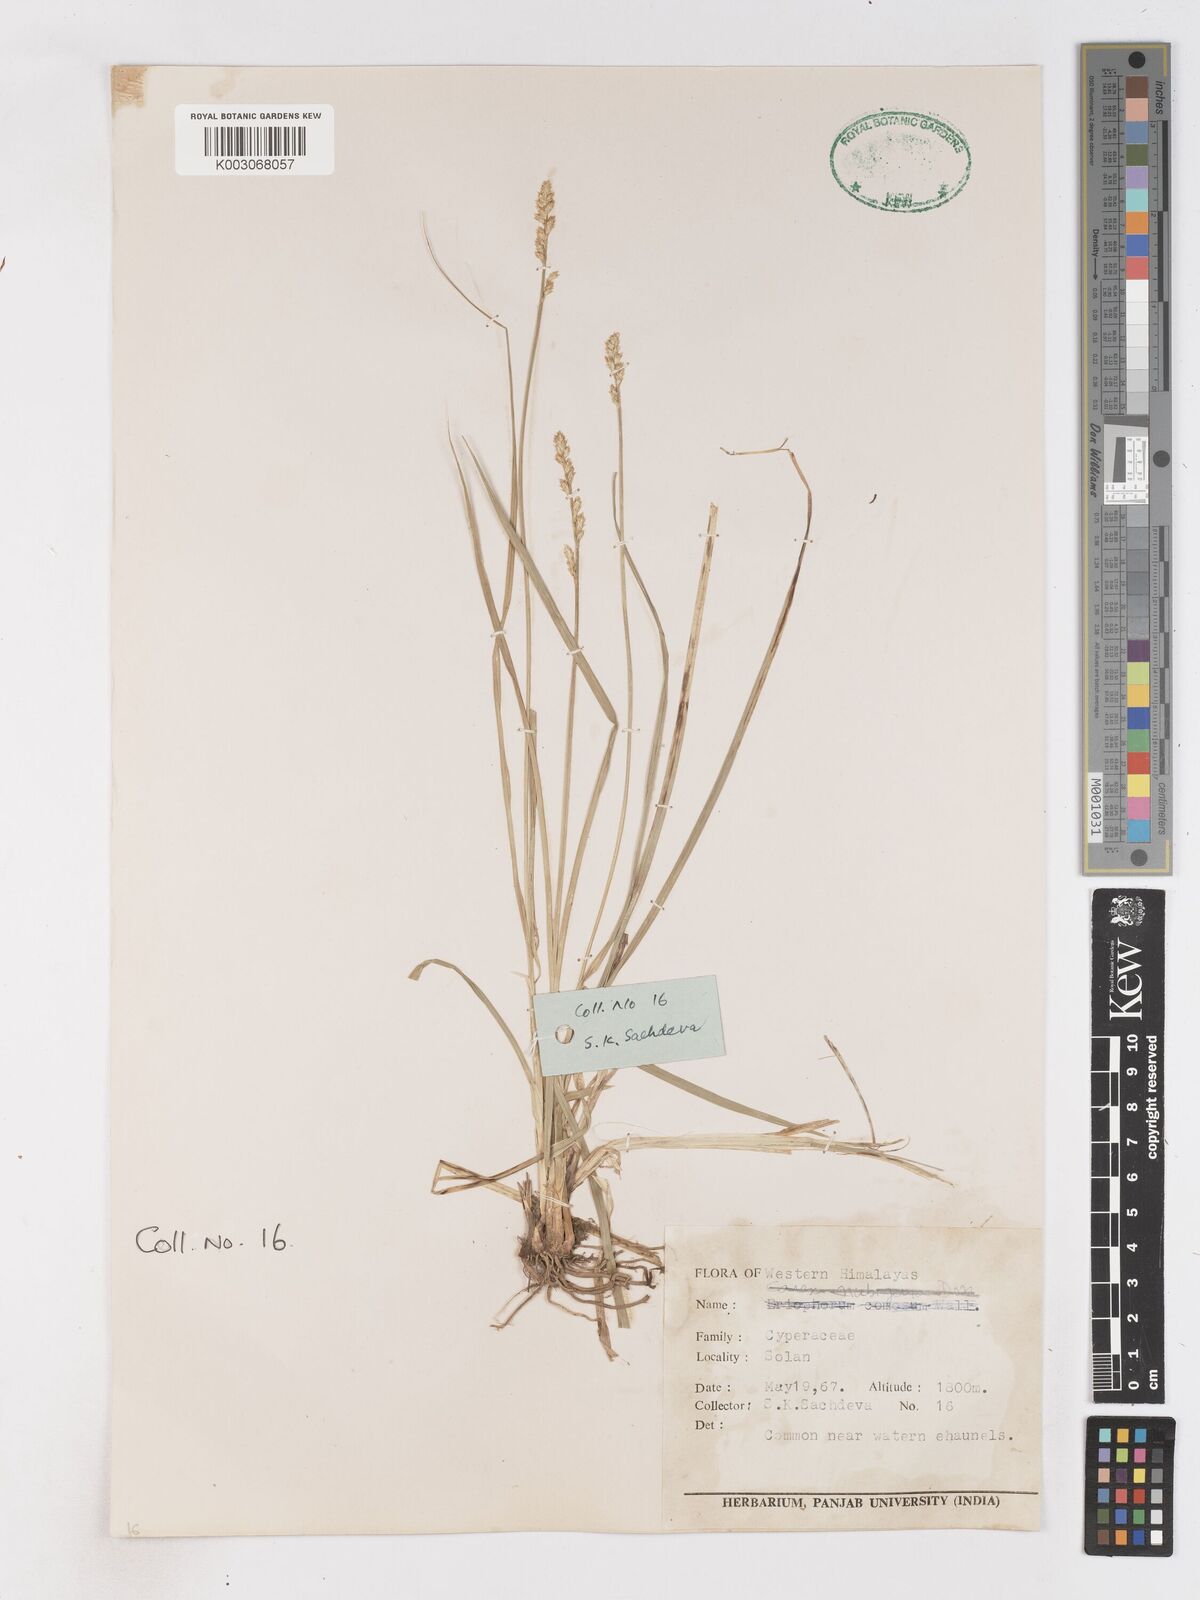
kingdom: Plantae
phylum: Tracheophyta
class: Liliopsida
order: Poales
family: Cyperaceae
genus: Cyperus
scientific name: Cyperus
